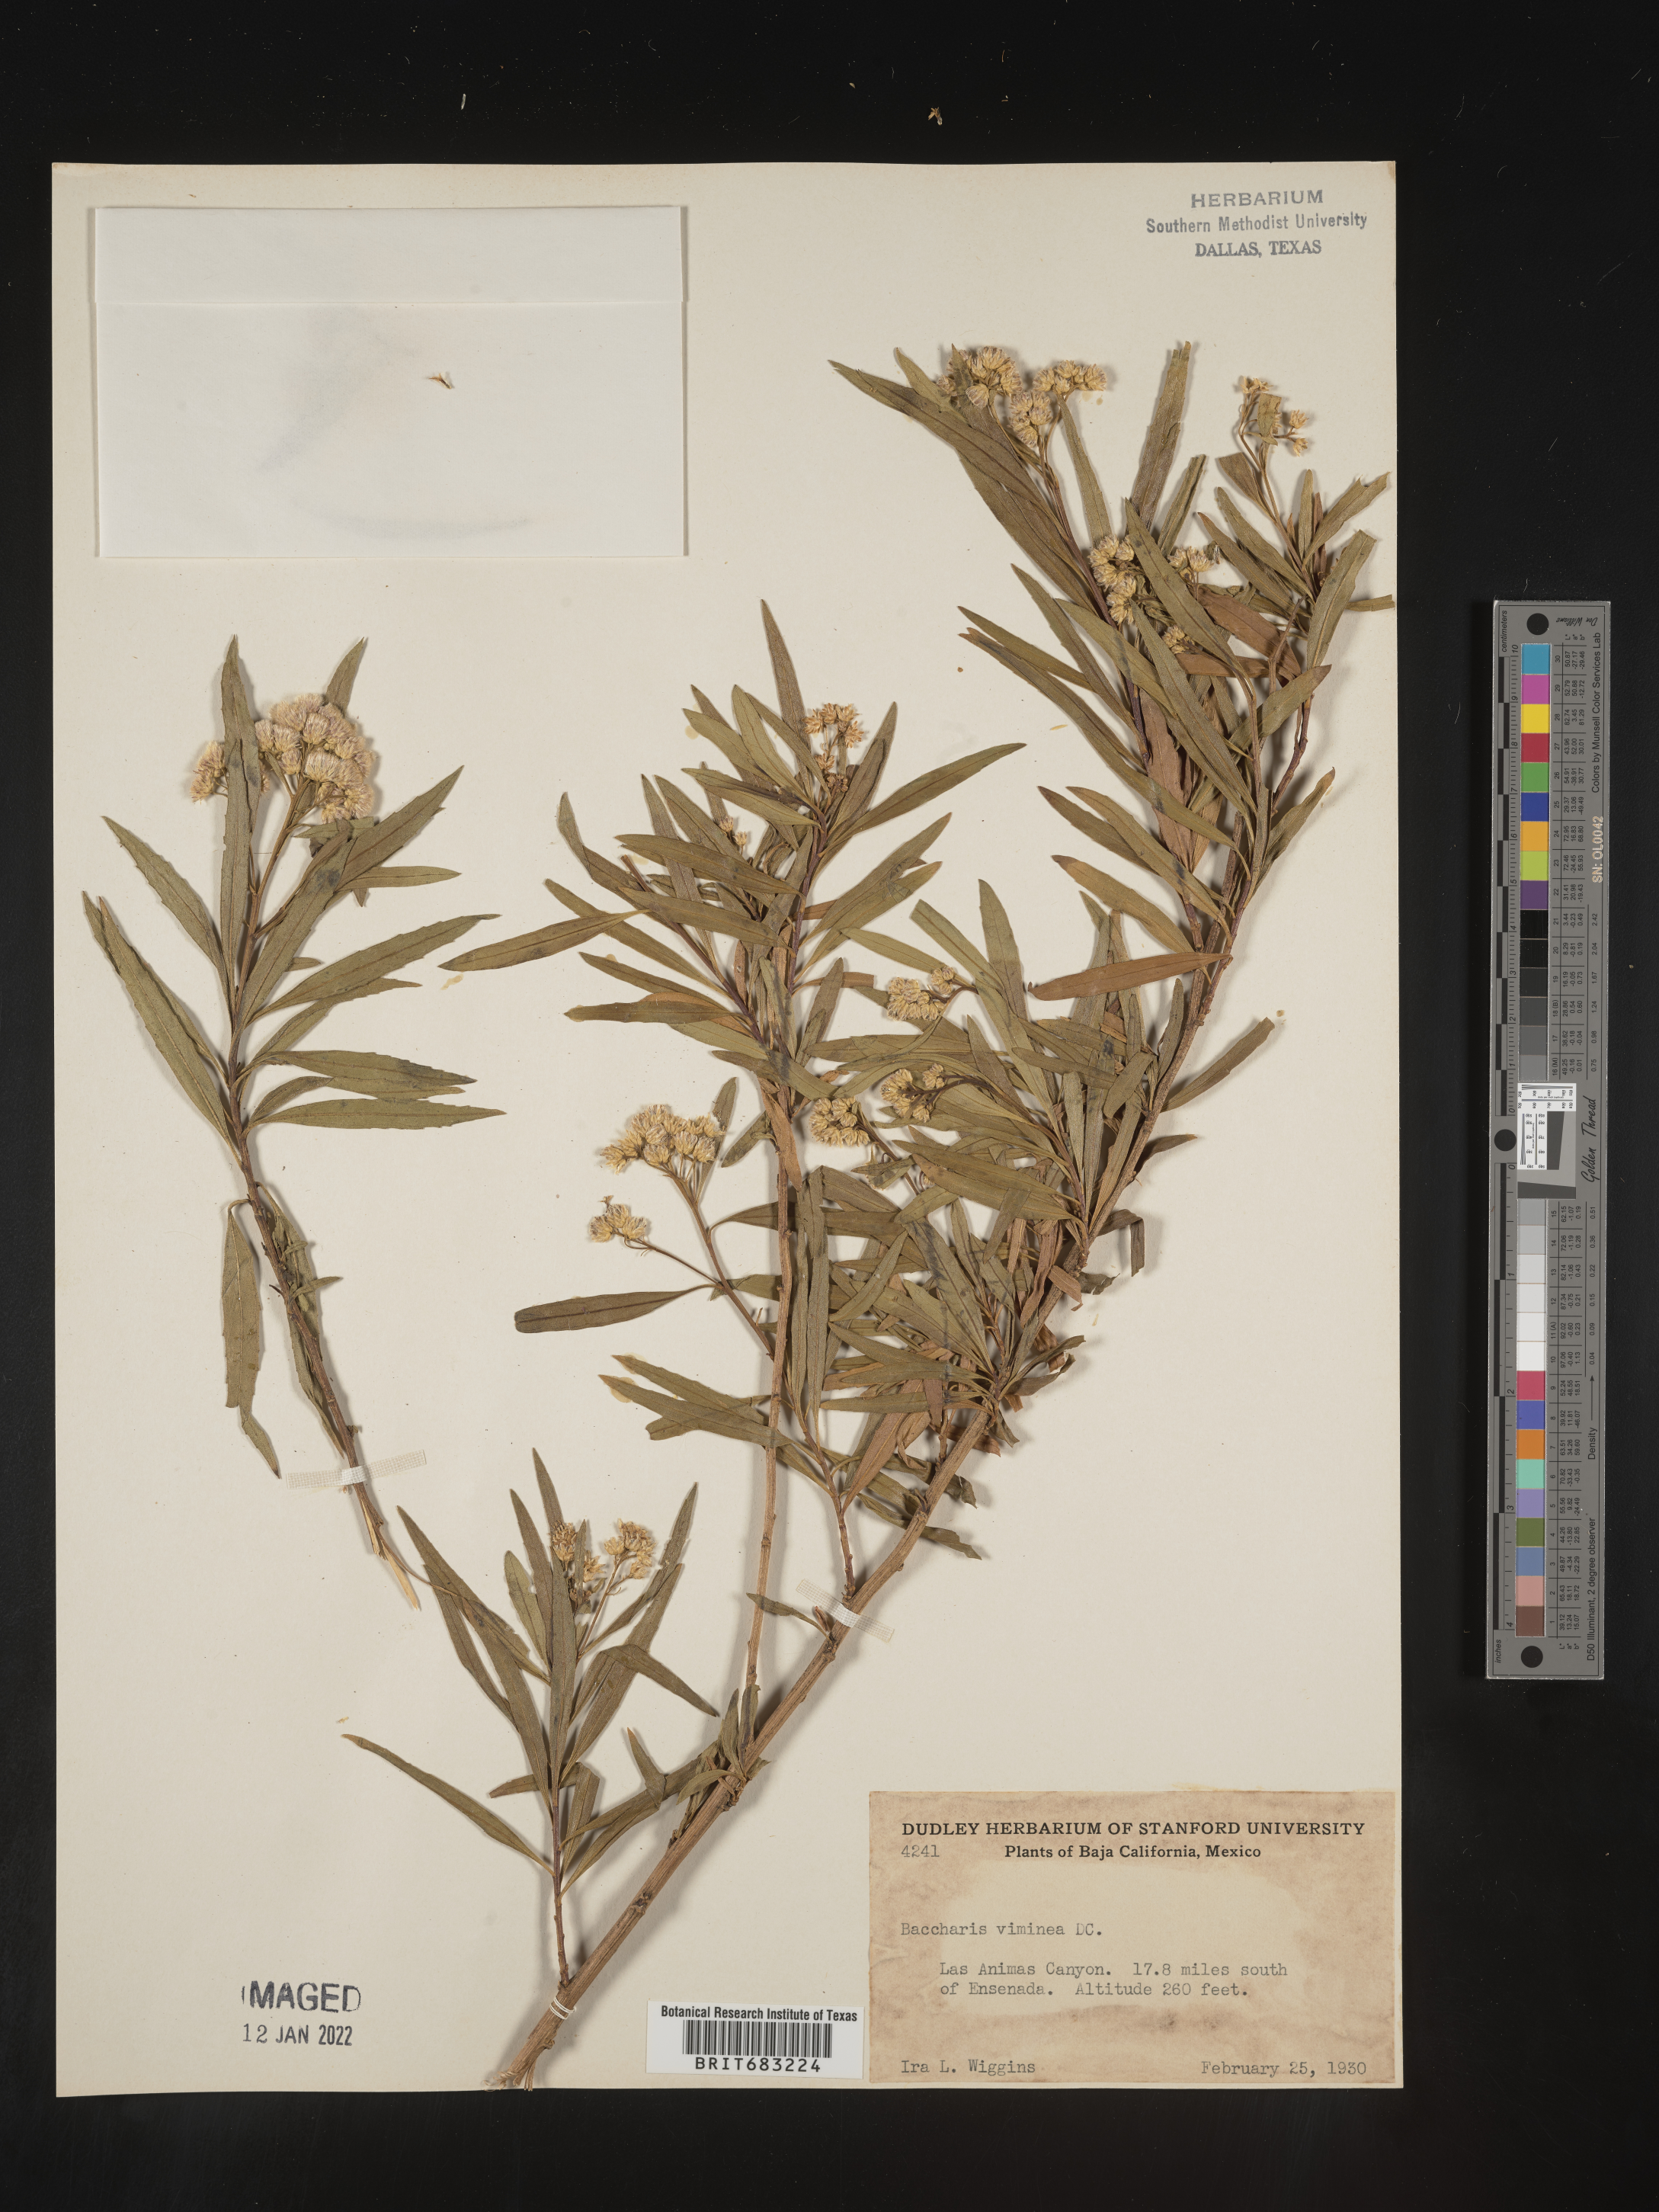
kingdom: Plantae
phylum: Tracheophyta
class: Magnoliopsida
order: Asterales
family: Asteraceae
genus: Baccharis
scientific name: Baccharis salicifolia
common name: Sticky baccharis
